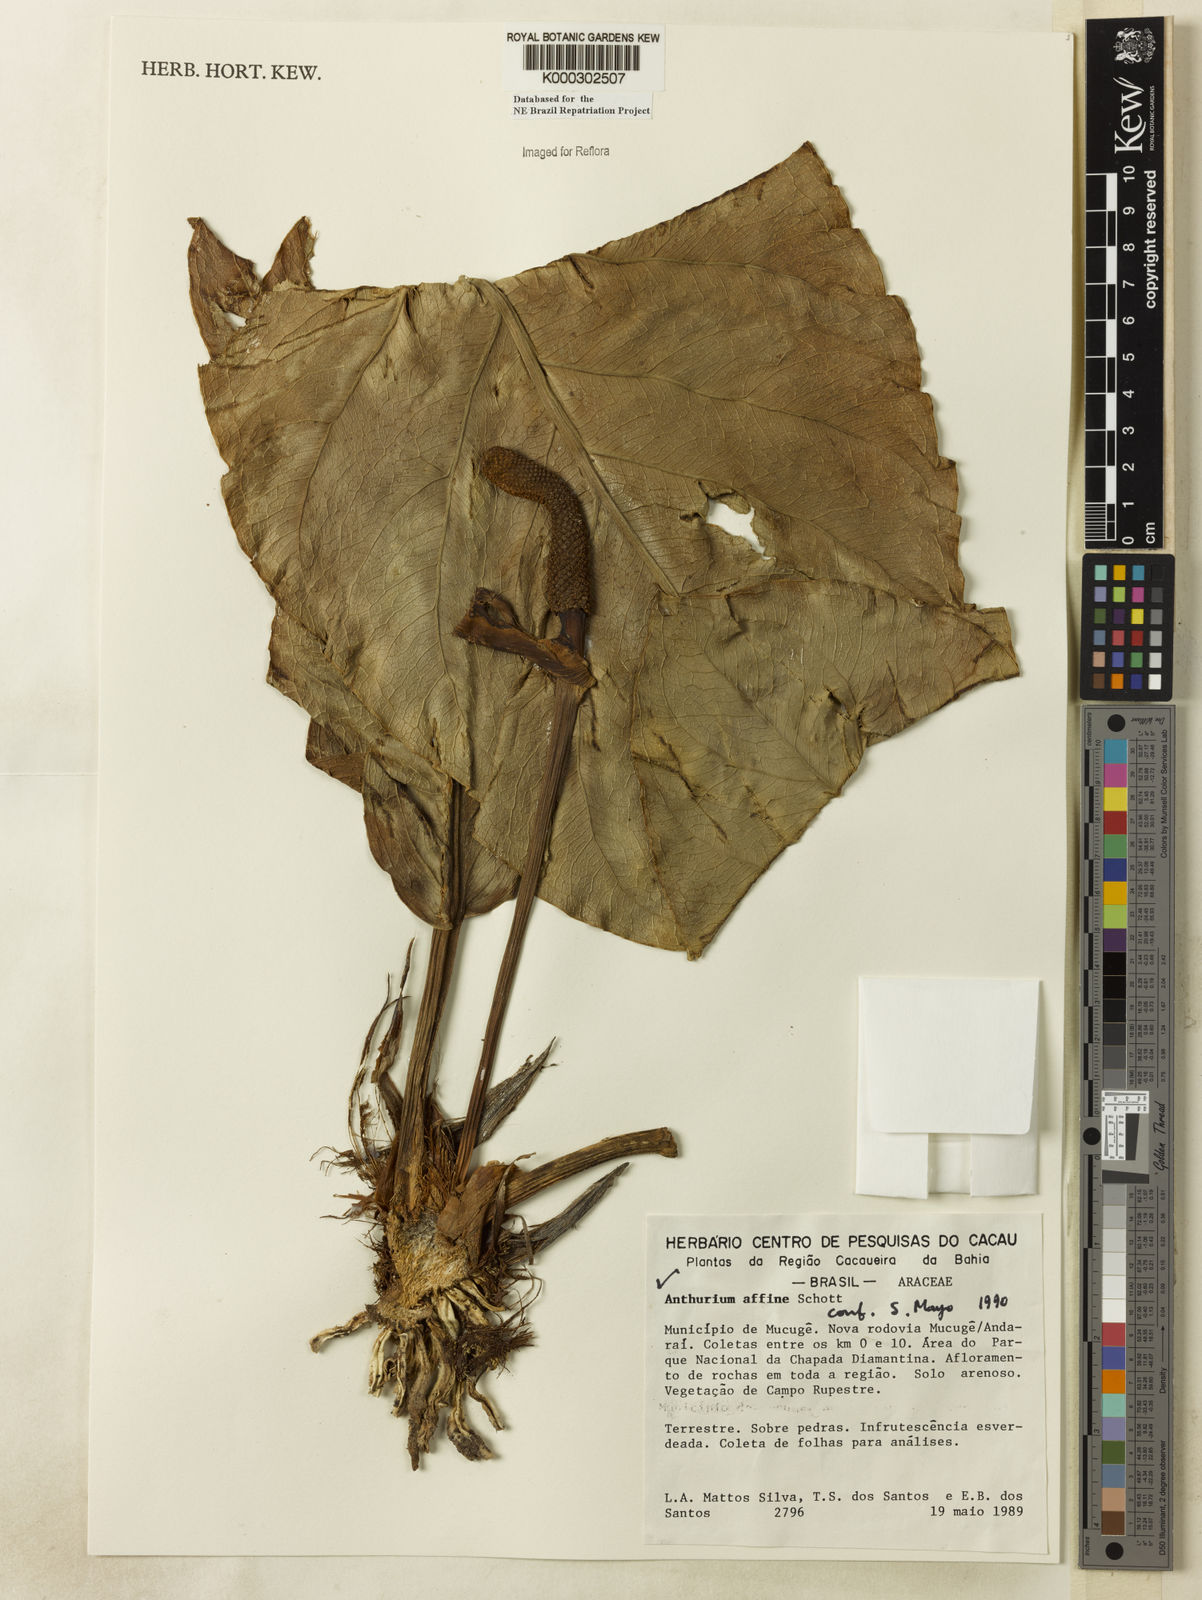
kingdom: Plantae
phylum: Tracheophyta
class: Liliopsida
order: Alismatales
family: Araceae
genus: Anthurium
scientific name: Anthurium affine
